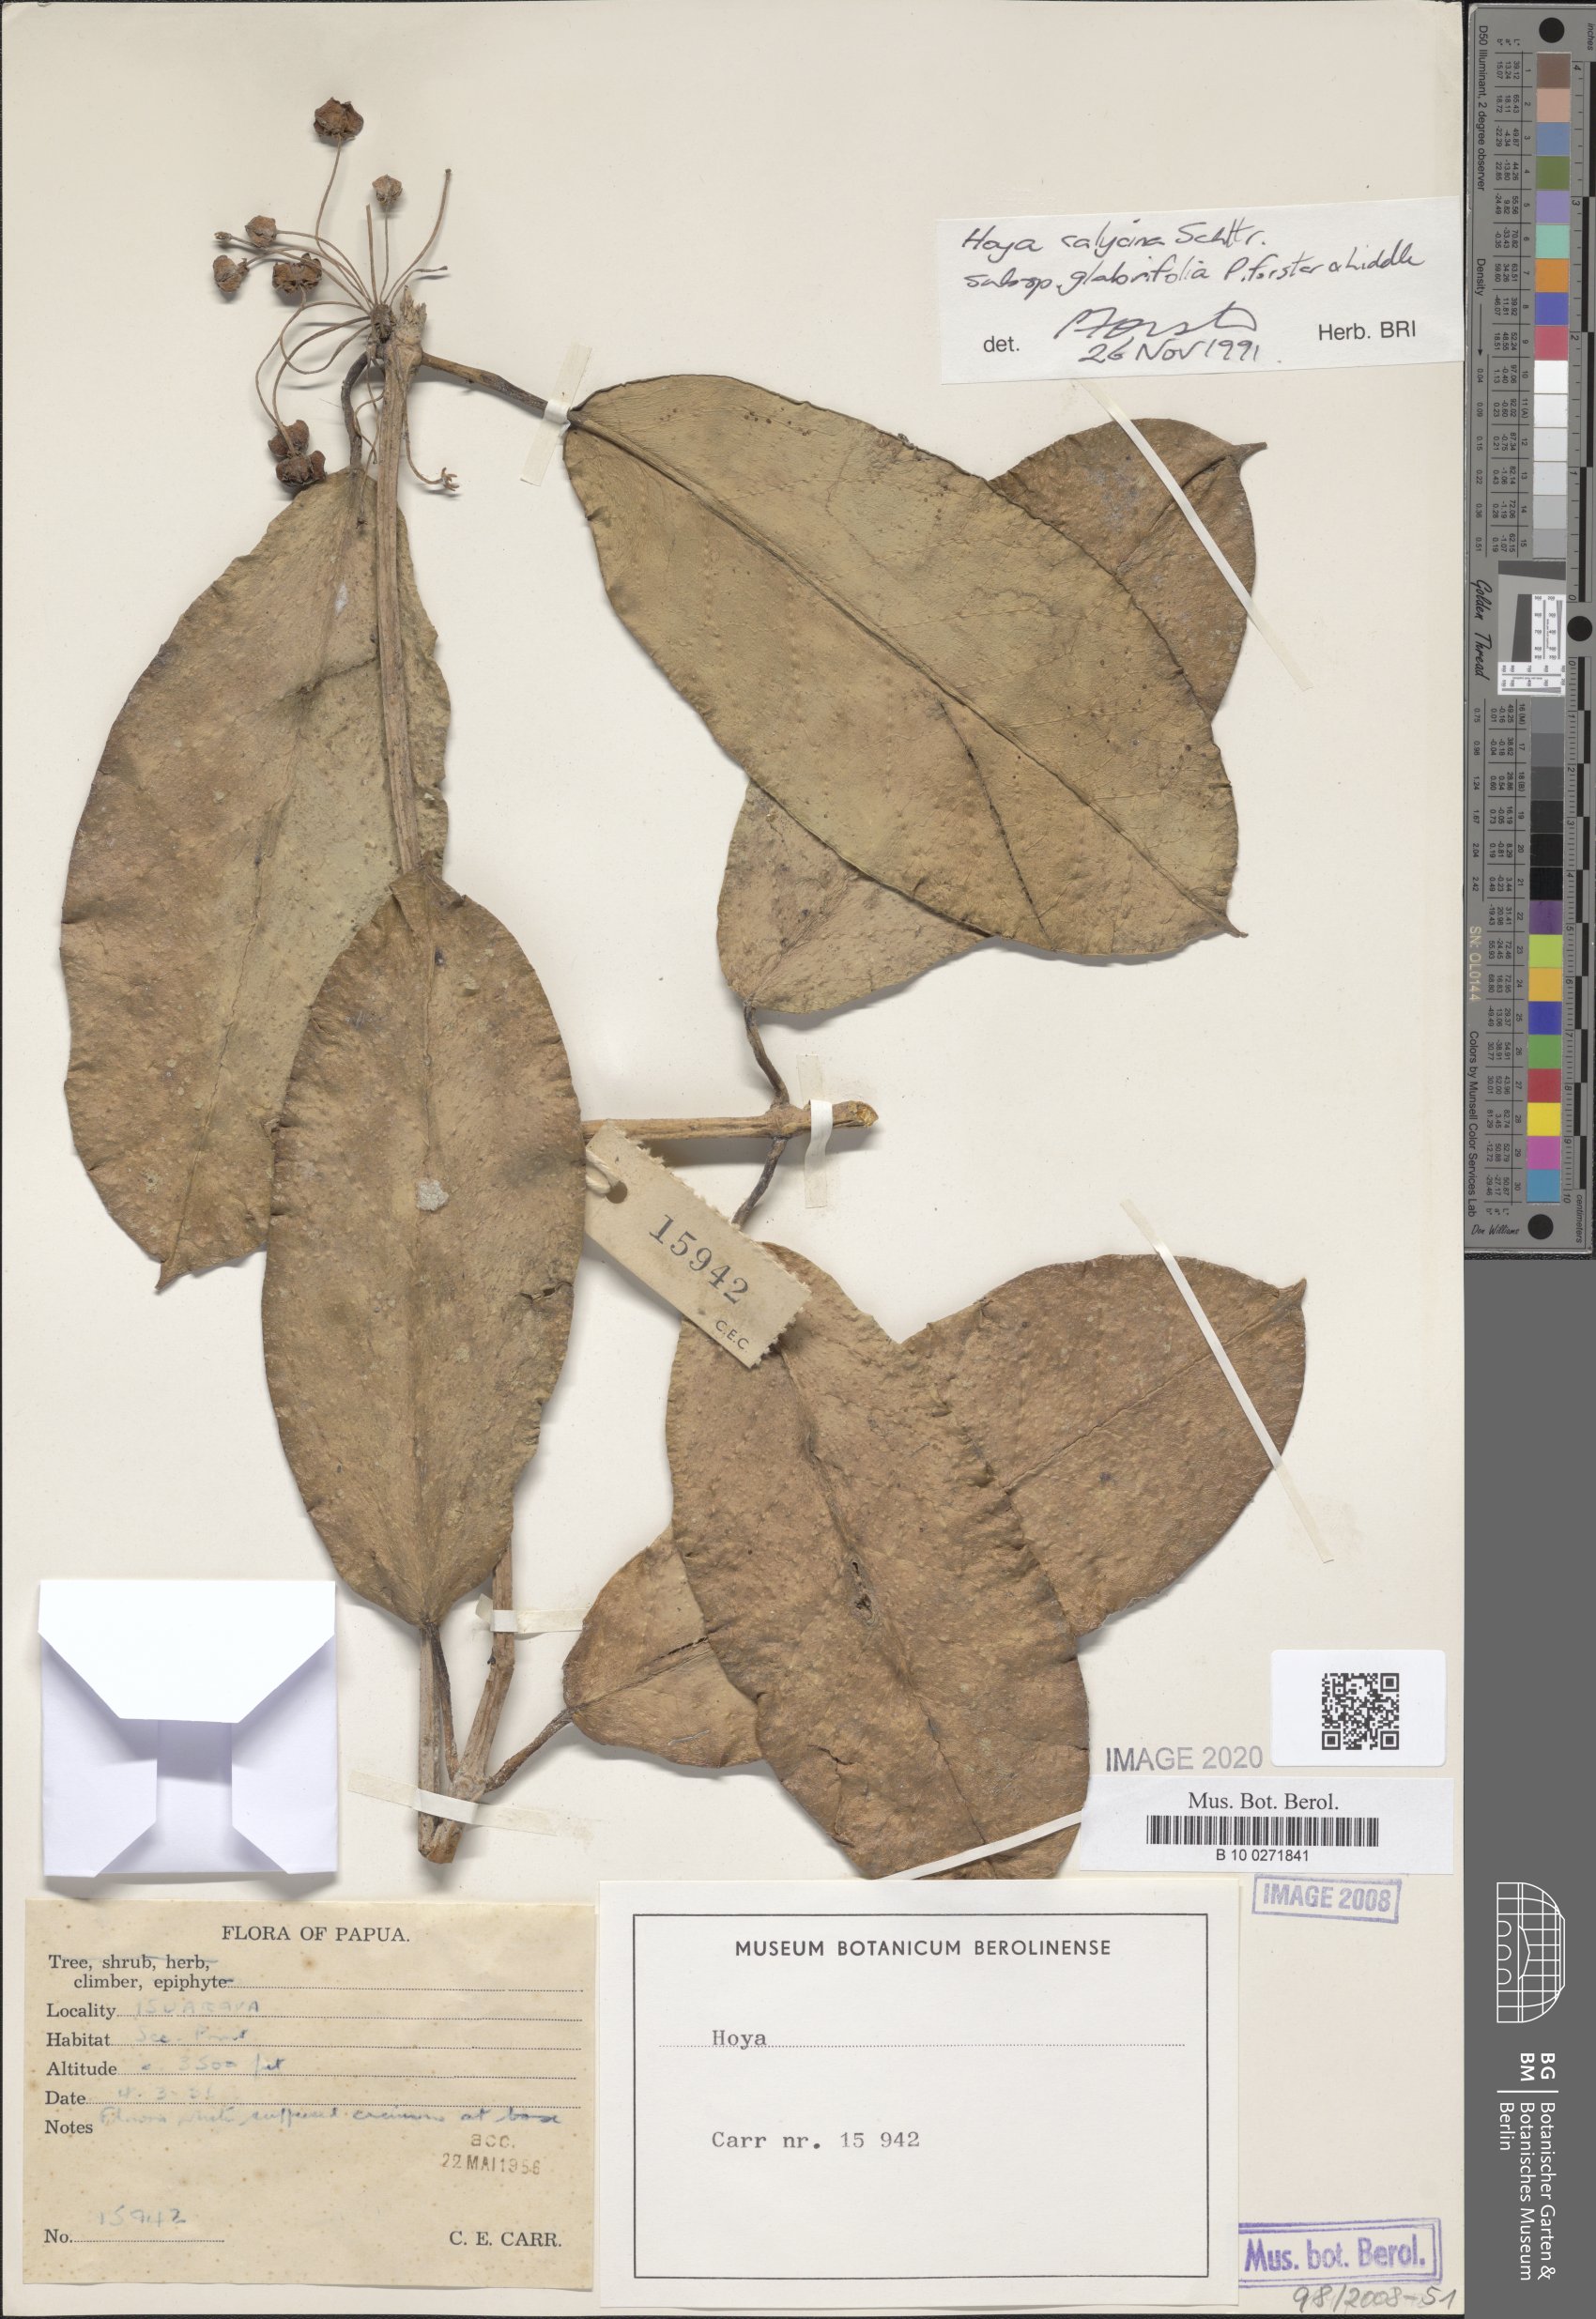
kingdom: Plantae
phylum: Tracheophyta
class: Magnoliopsida
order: Gentianales
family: Apocynaceae
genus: Hoya
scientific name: Hoya calycina
